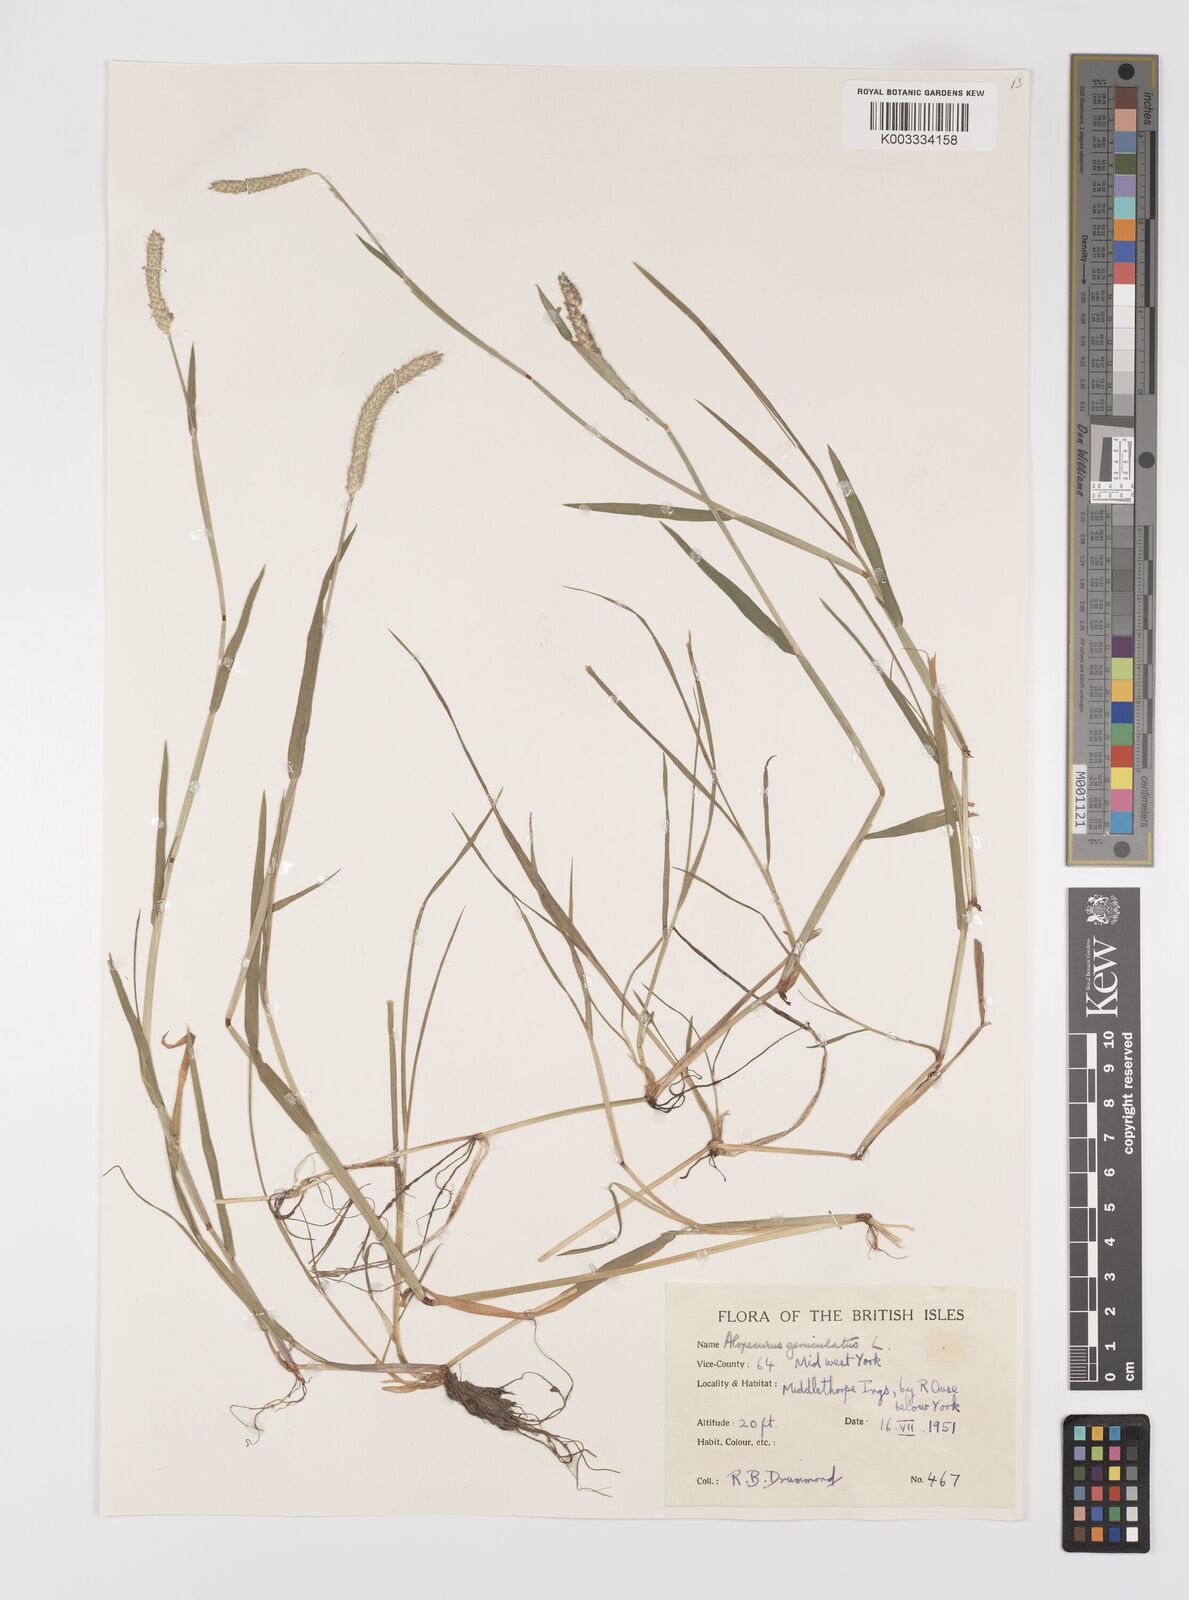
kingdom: Plantae
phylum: Tracheophyta
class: Liliopsida
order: Poales
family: Poaceae
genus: Alopecurus
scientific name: Alopecurus geniculatus
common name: Water foxtail
